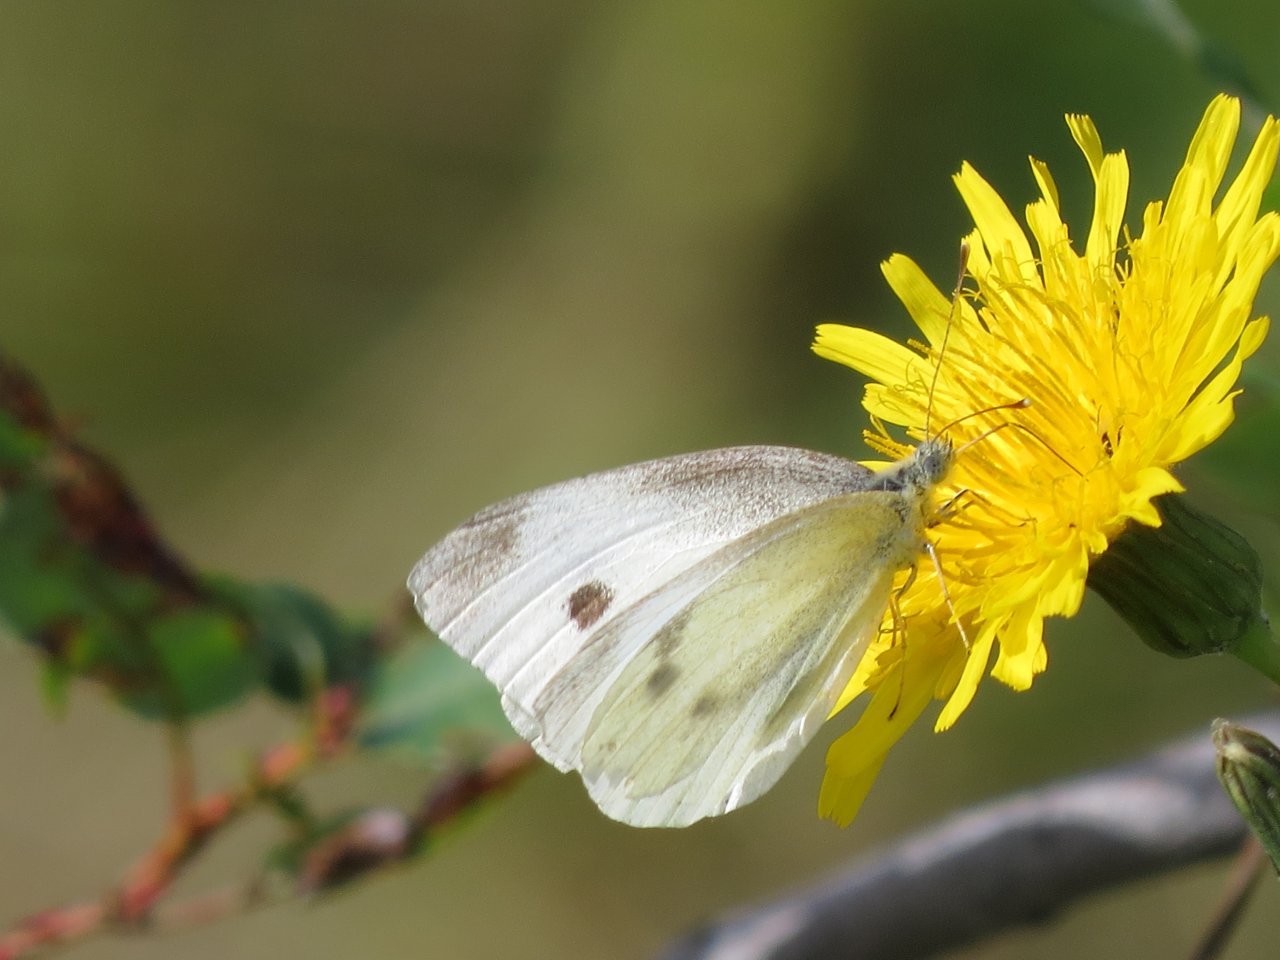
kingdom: Animalia
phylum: Arthropoda
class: Insecta
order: Lepidoptera
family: Pieridae
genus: Pieris
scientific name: Pieris rapae
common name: Cabbage White
